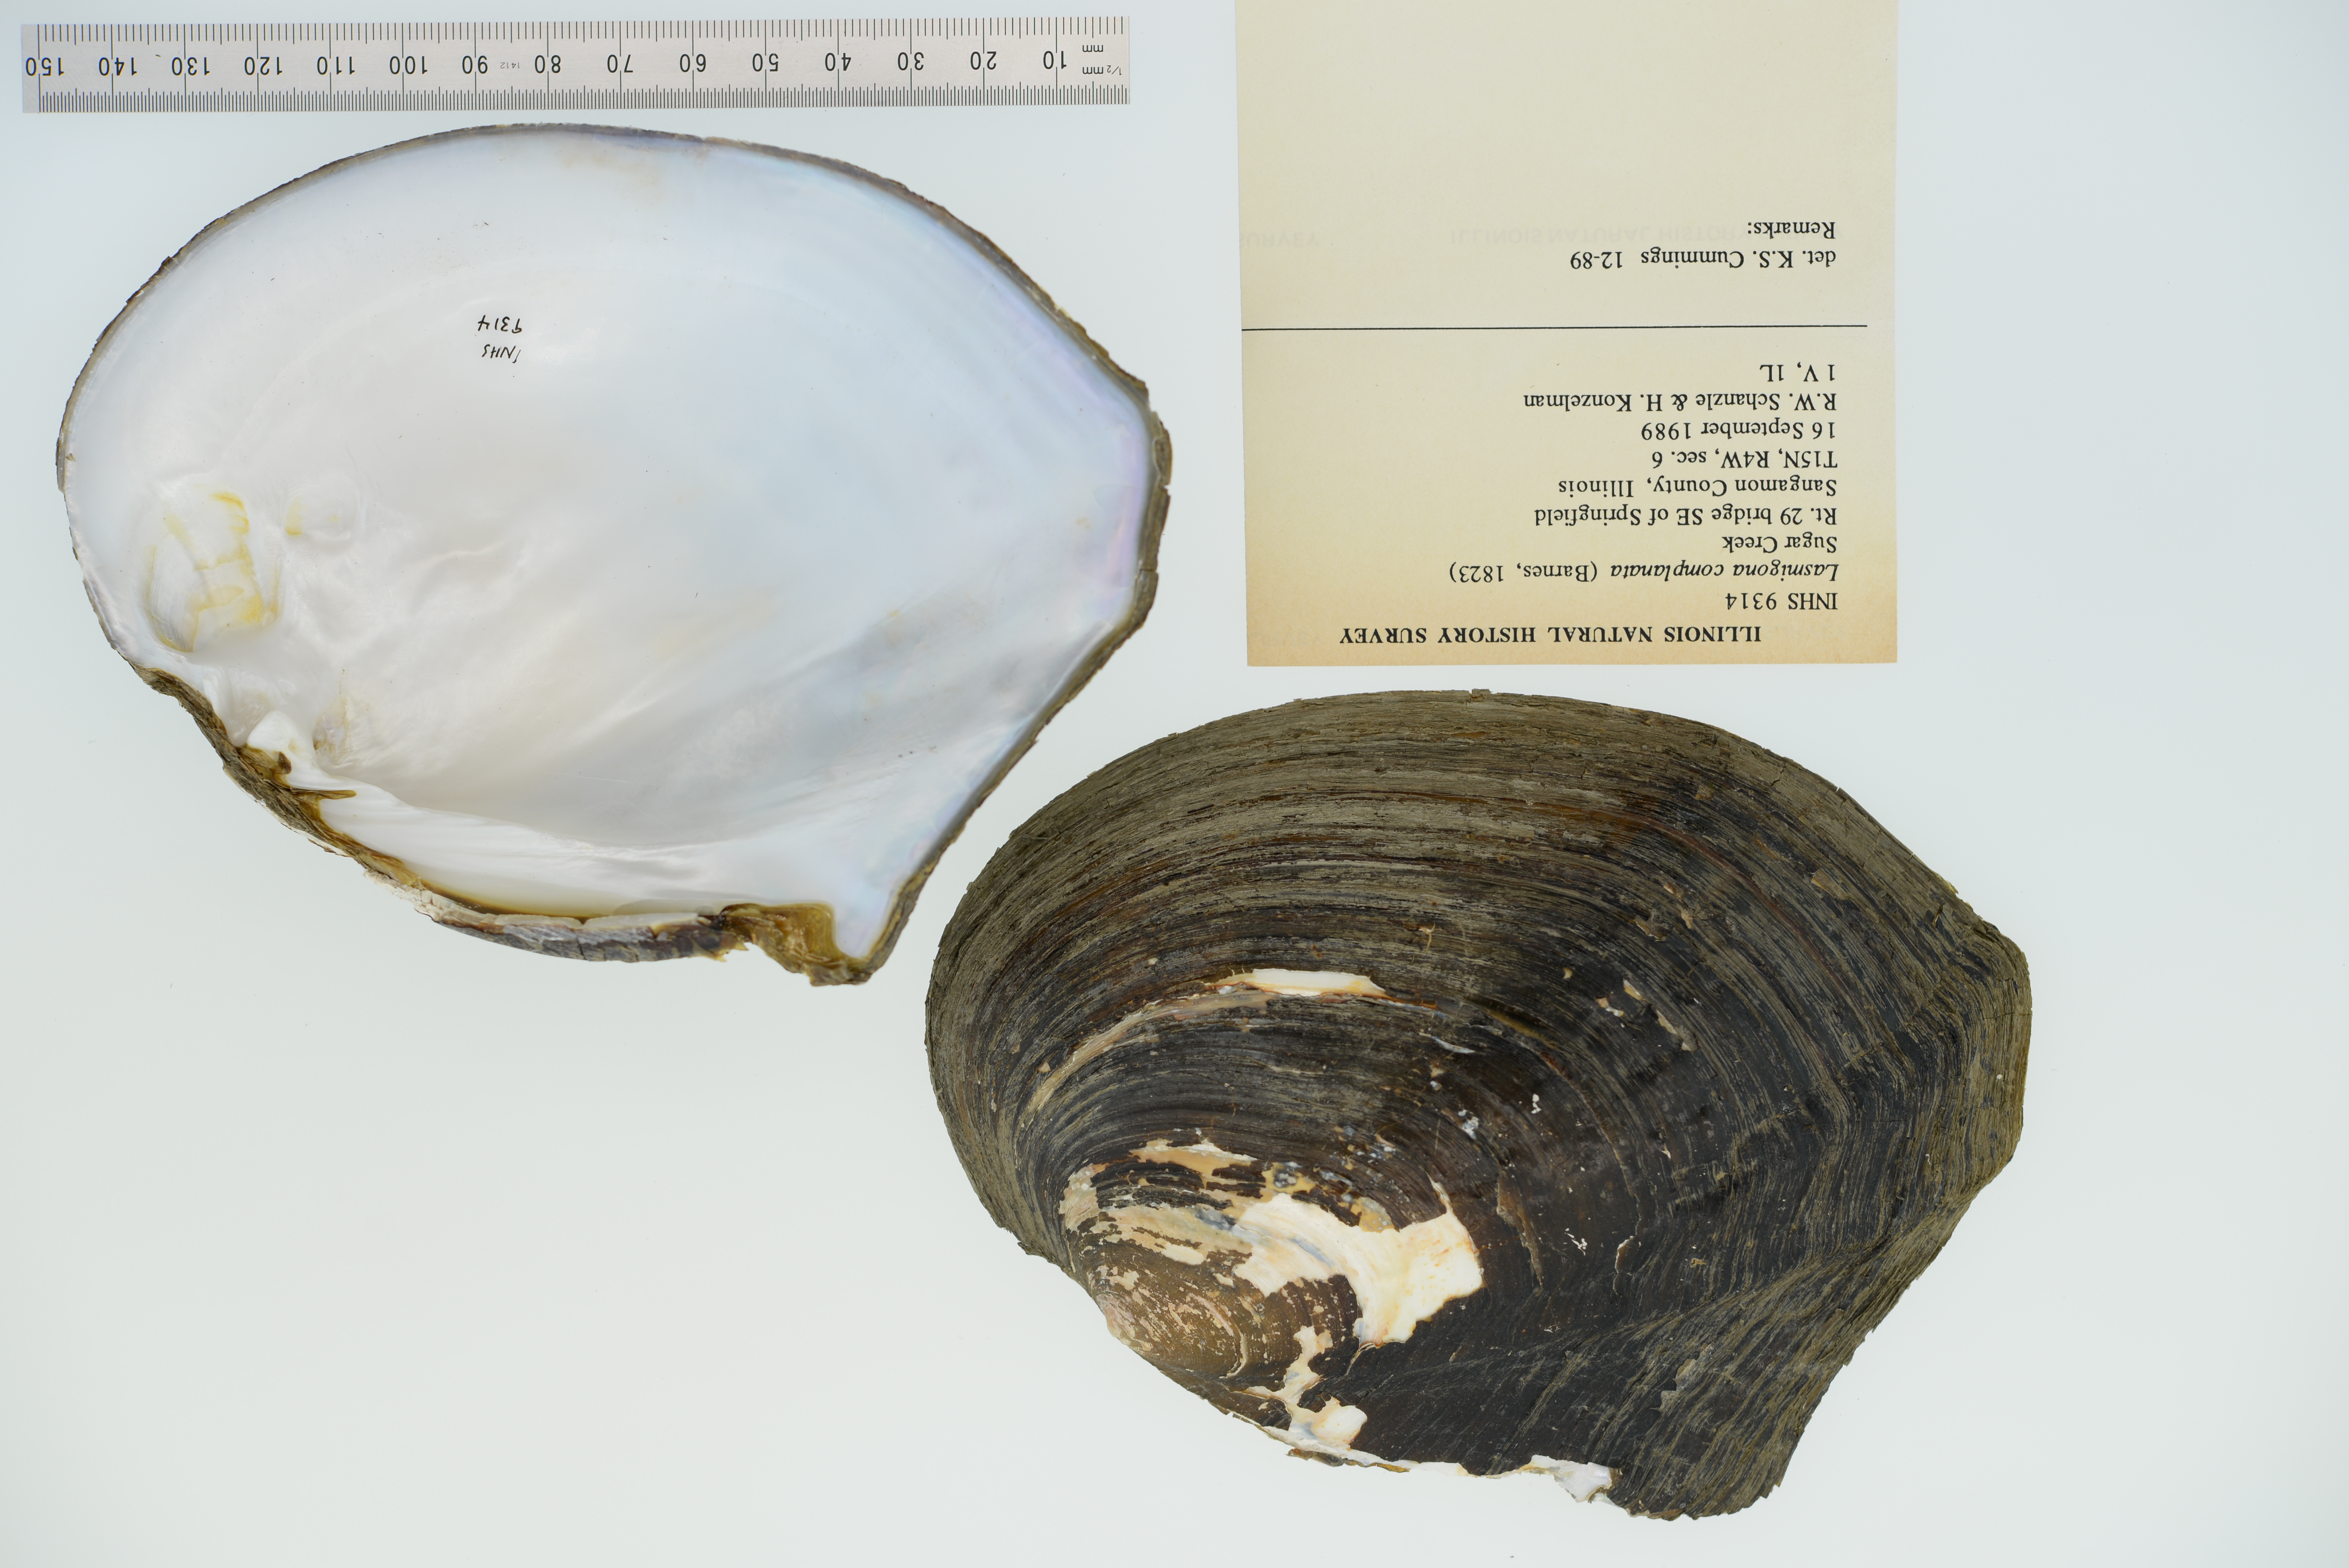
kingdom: Animalia
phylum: Mollusca
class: Bivalvia
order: Unionida
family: Unionidae
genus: Lasmigona
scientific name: Lasmigona complanata
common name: White heelsplitter
